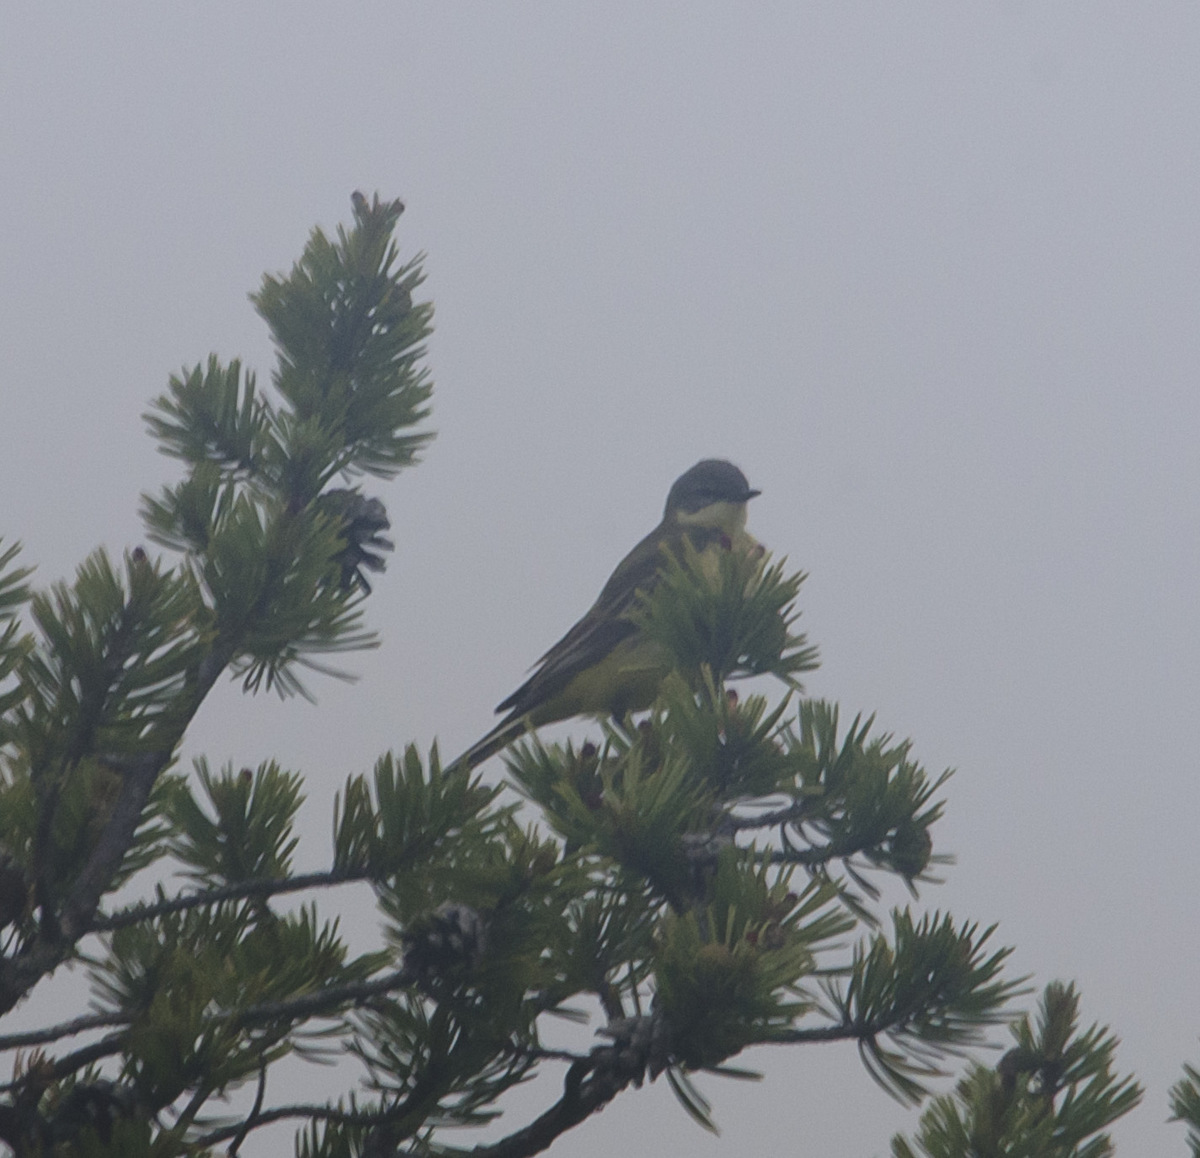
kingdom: Animalia
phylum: Chordata
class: Aves
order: Passeriformes
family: Motacillidae
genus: Motacilla
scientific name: Motacilla flava
